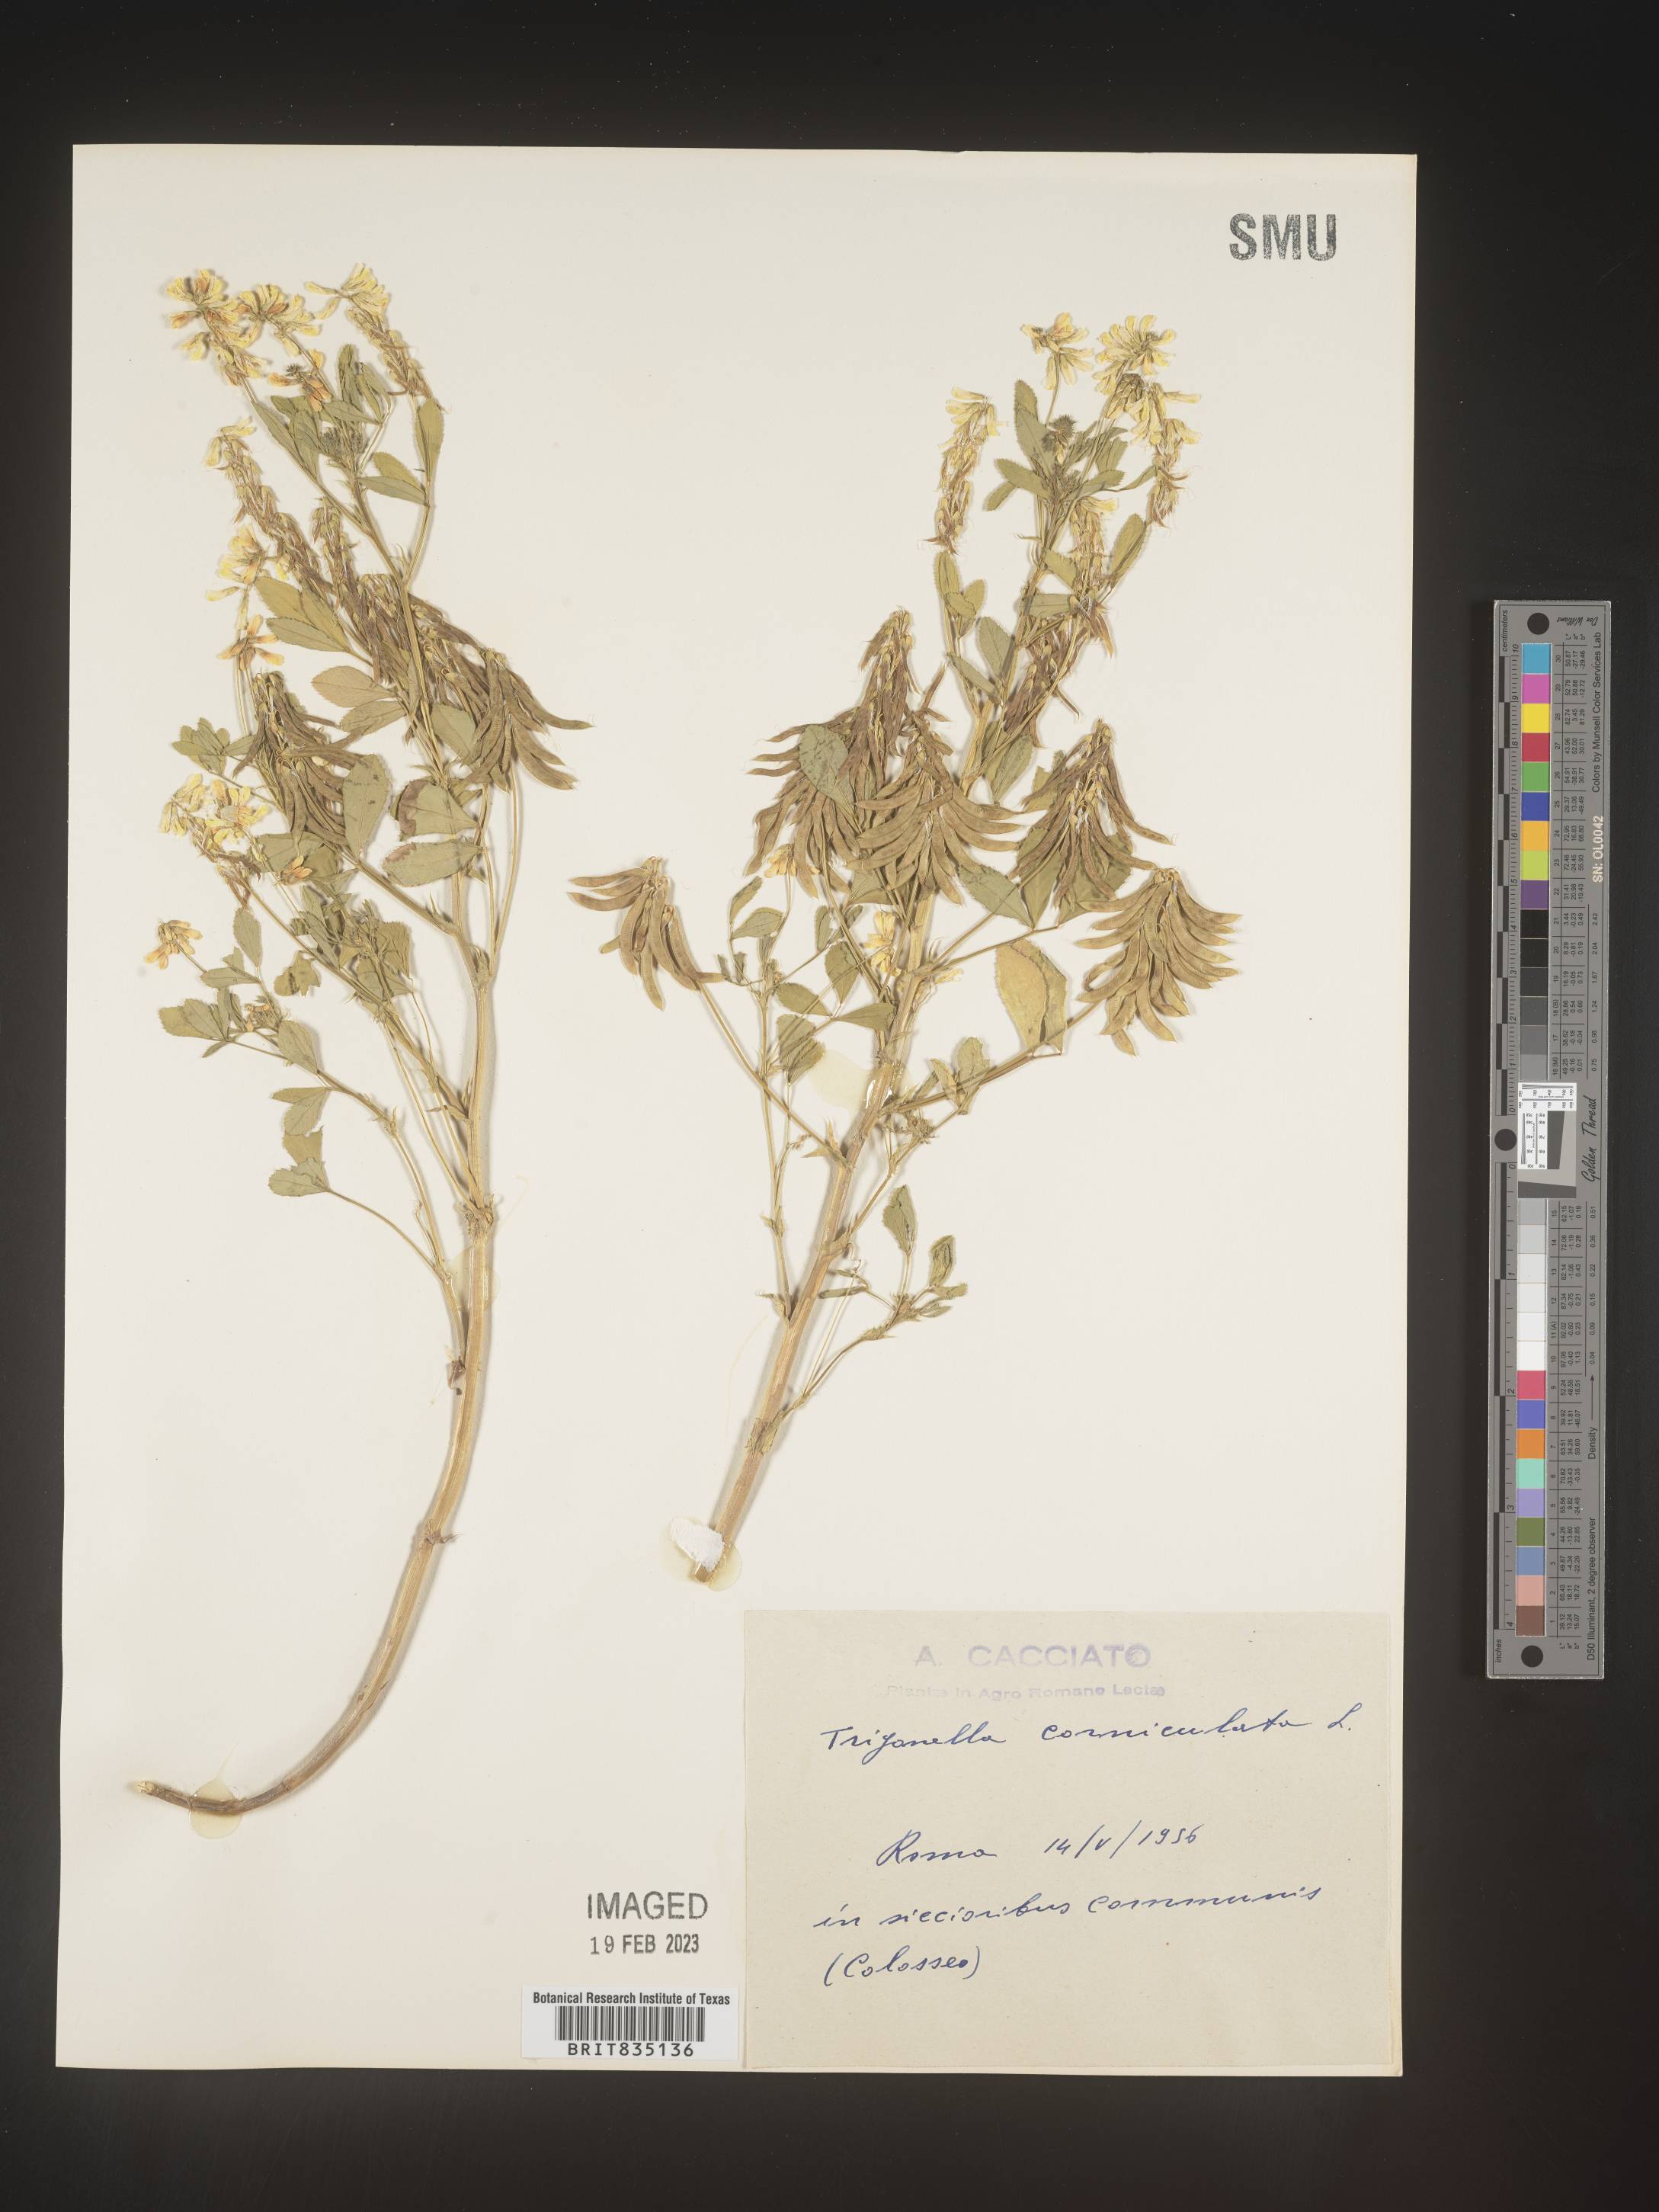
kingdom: Plantae
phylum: Tracheophyta
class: Magnoliopsida
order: Fabales
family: Fabaceae
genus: Trigonella
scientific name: Trigonella
